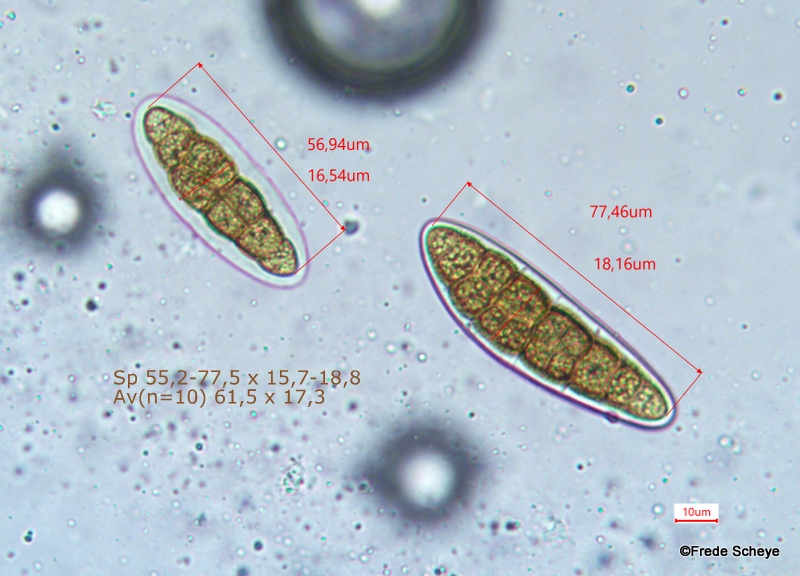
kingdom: Fungi
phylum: Ascomycota
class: Dothideomycetes
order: Pleosporales
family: Pleomassariaceae
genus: Pleomassaria
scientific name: Pleomassaria siparia
